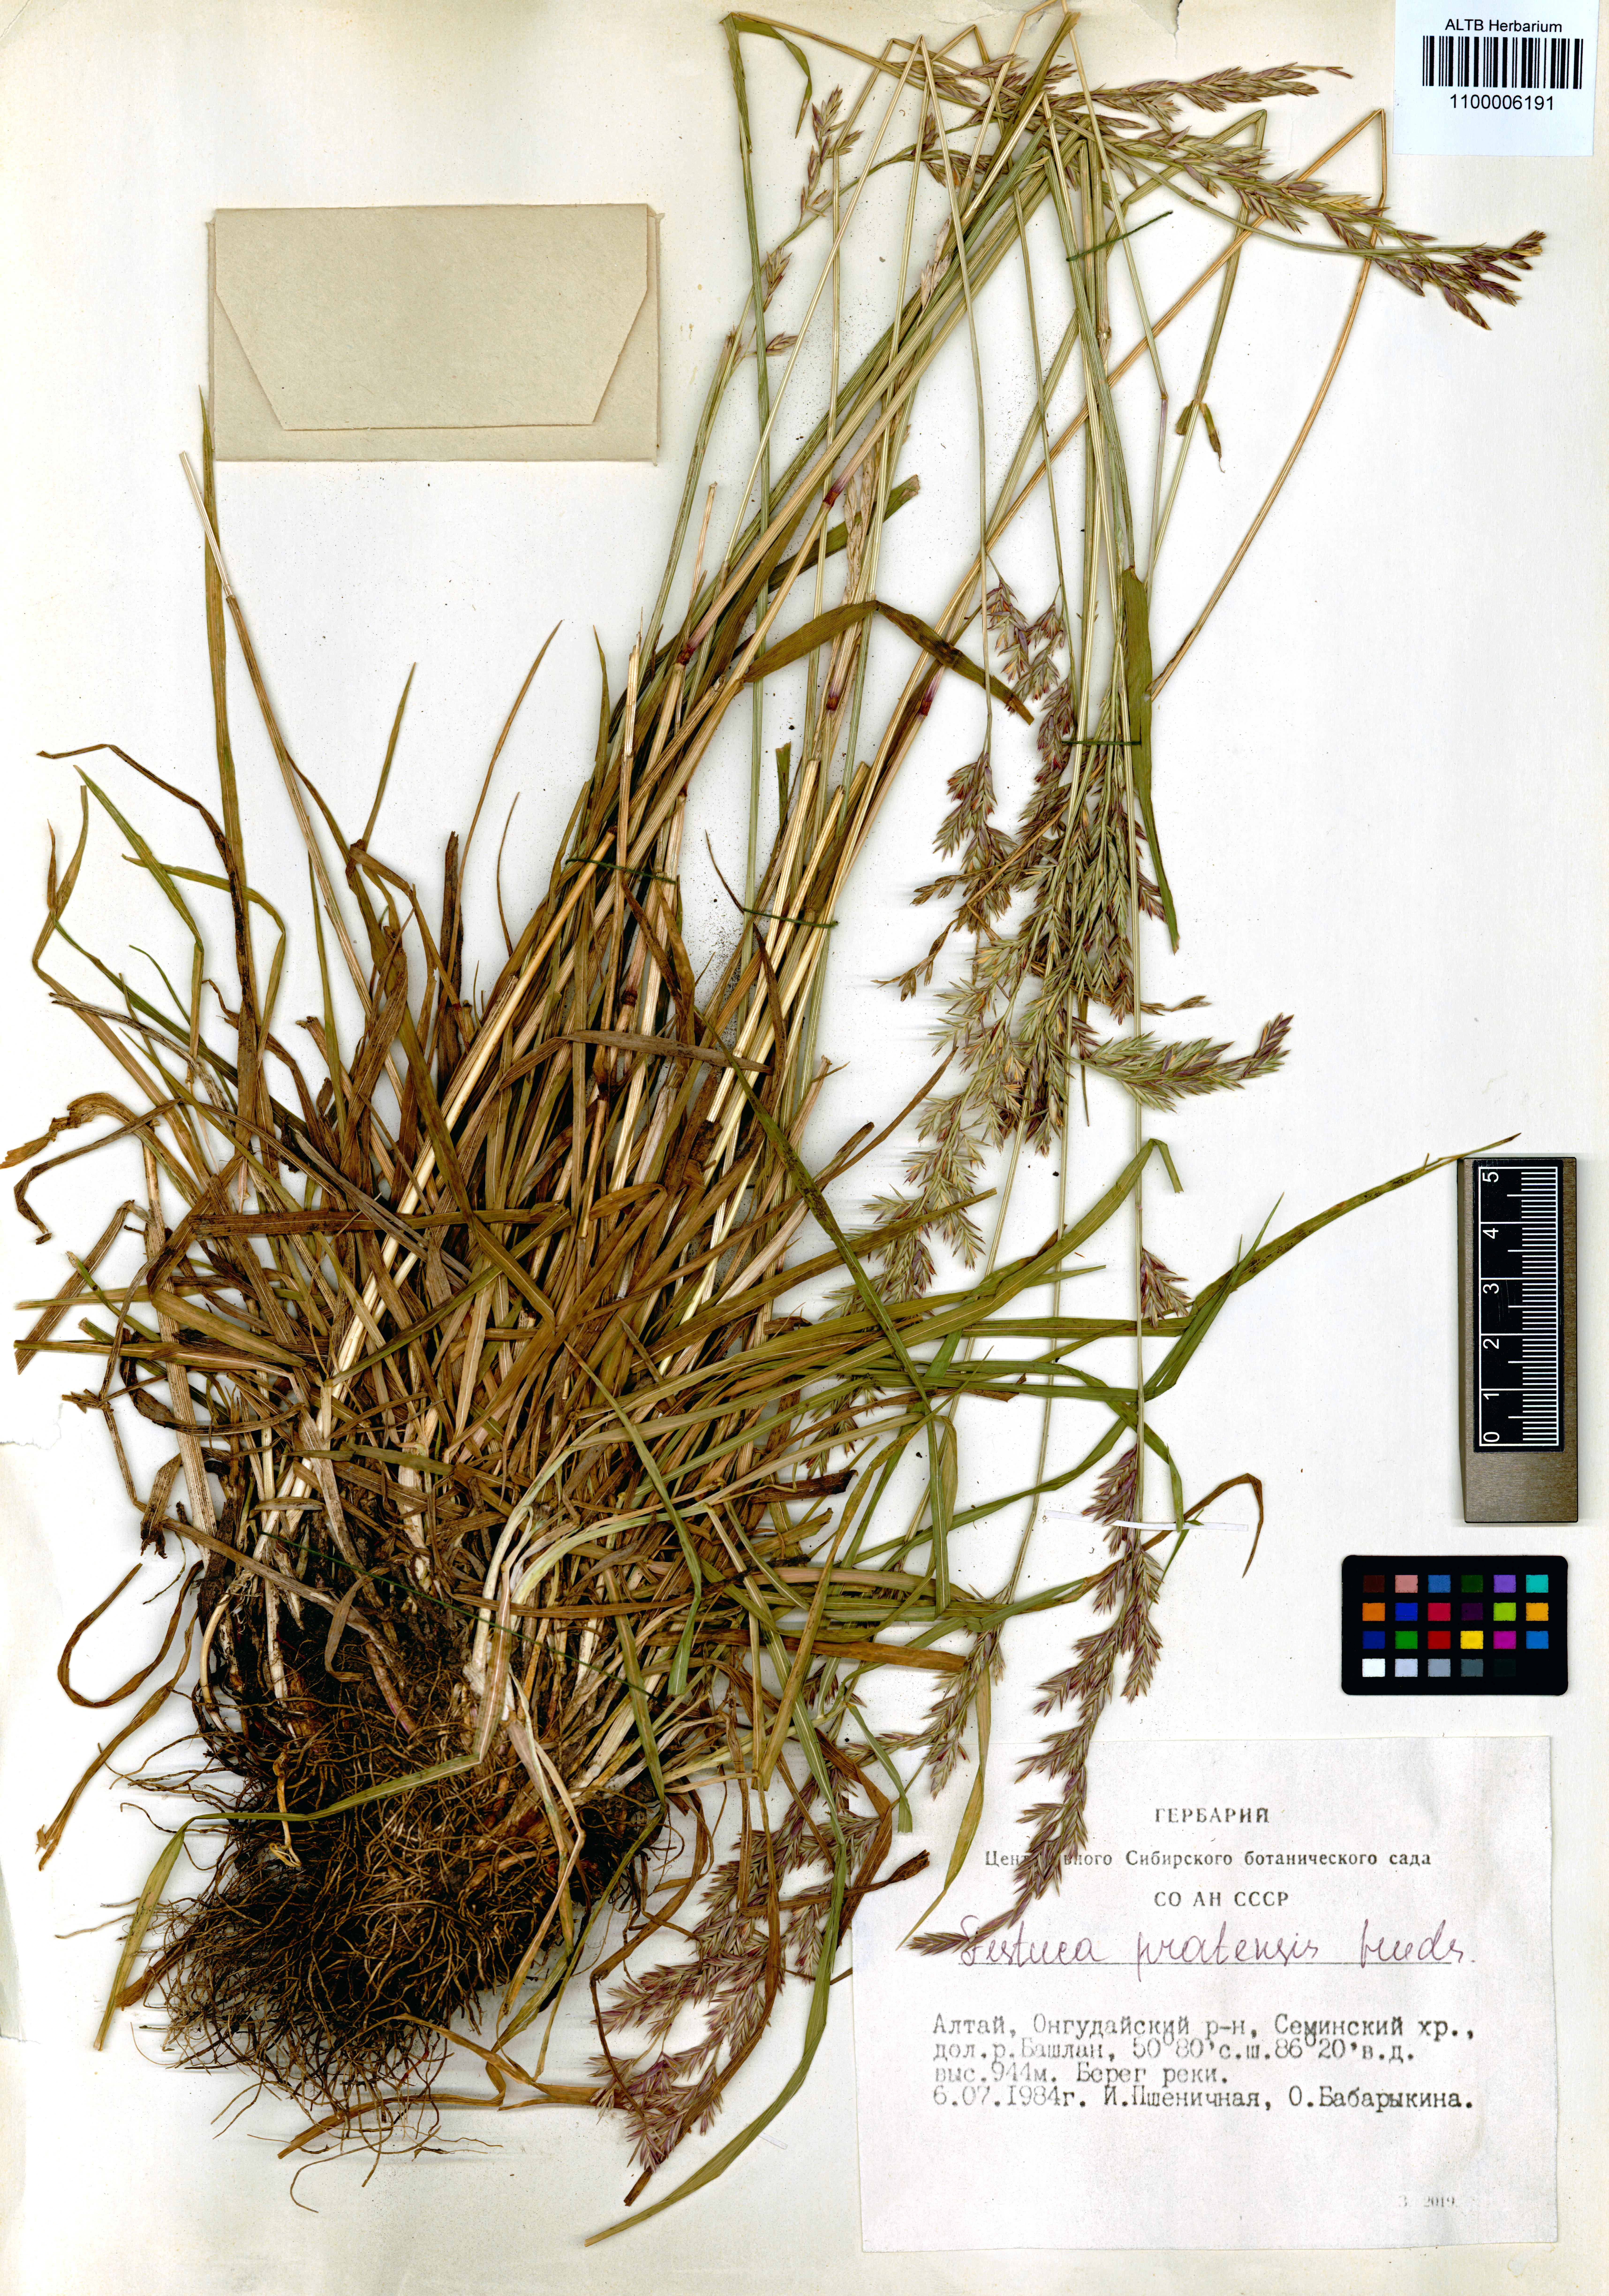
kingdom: Plantae
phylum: Tracheophyta
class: Liliopsida
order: Poales
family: Poaceae
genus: Lolium
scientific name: Lolium pratense
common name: Dover grass
